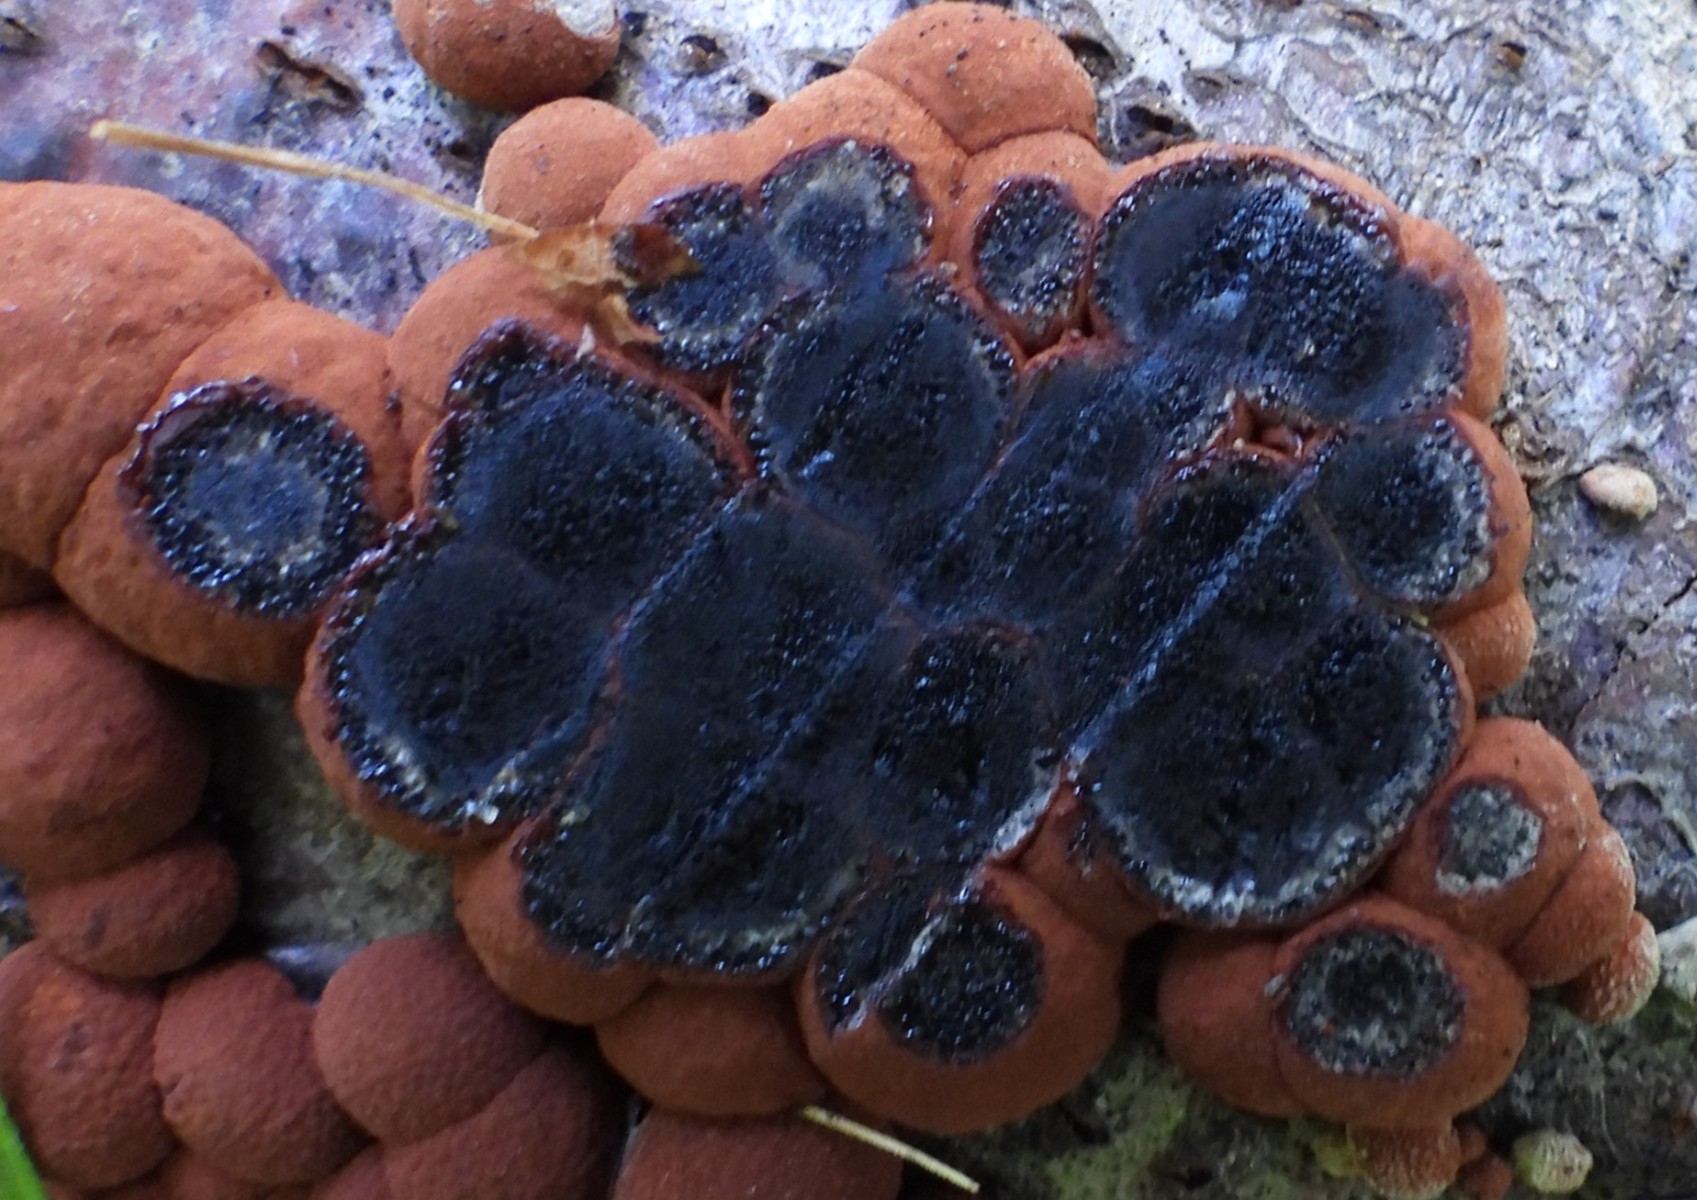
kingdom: Fungi
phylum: Ascomycota
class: Sordariomycetes
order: Xylariales
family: Hypoxylaceae
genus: Hypoxylon
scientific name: Hypoxylon fragiforme
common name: kuljordbær
